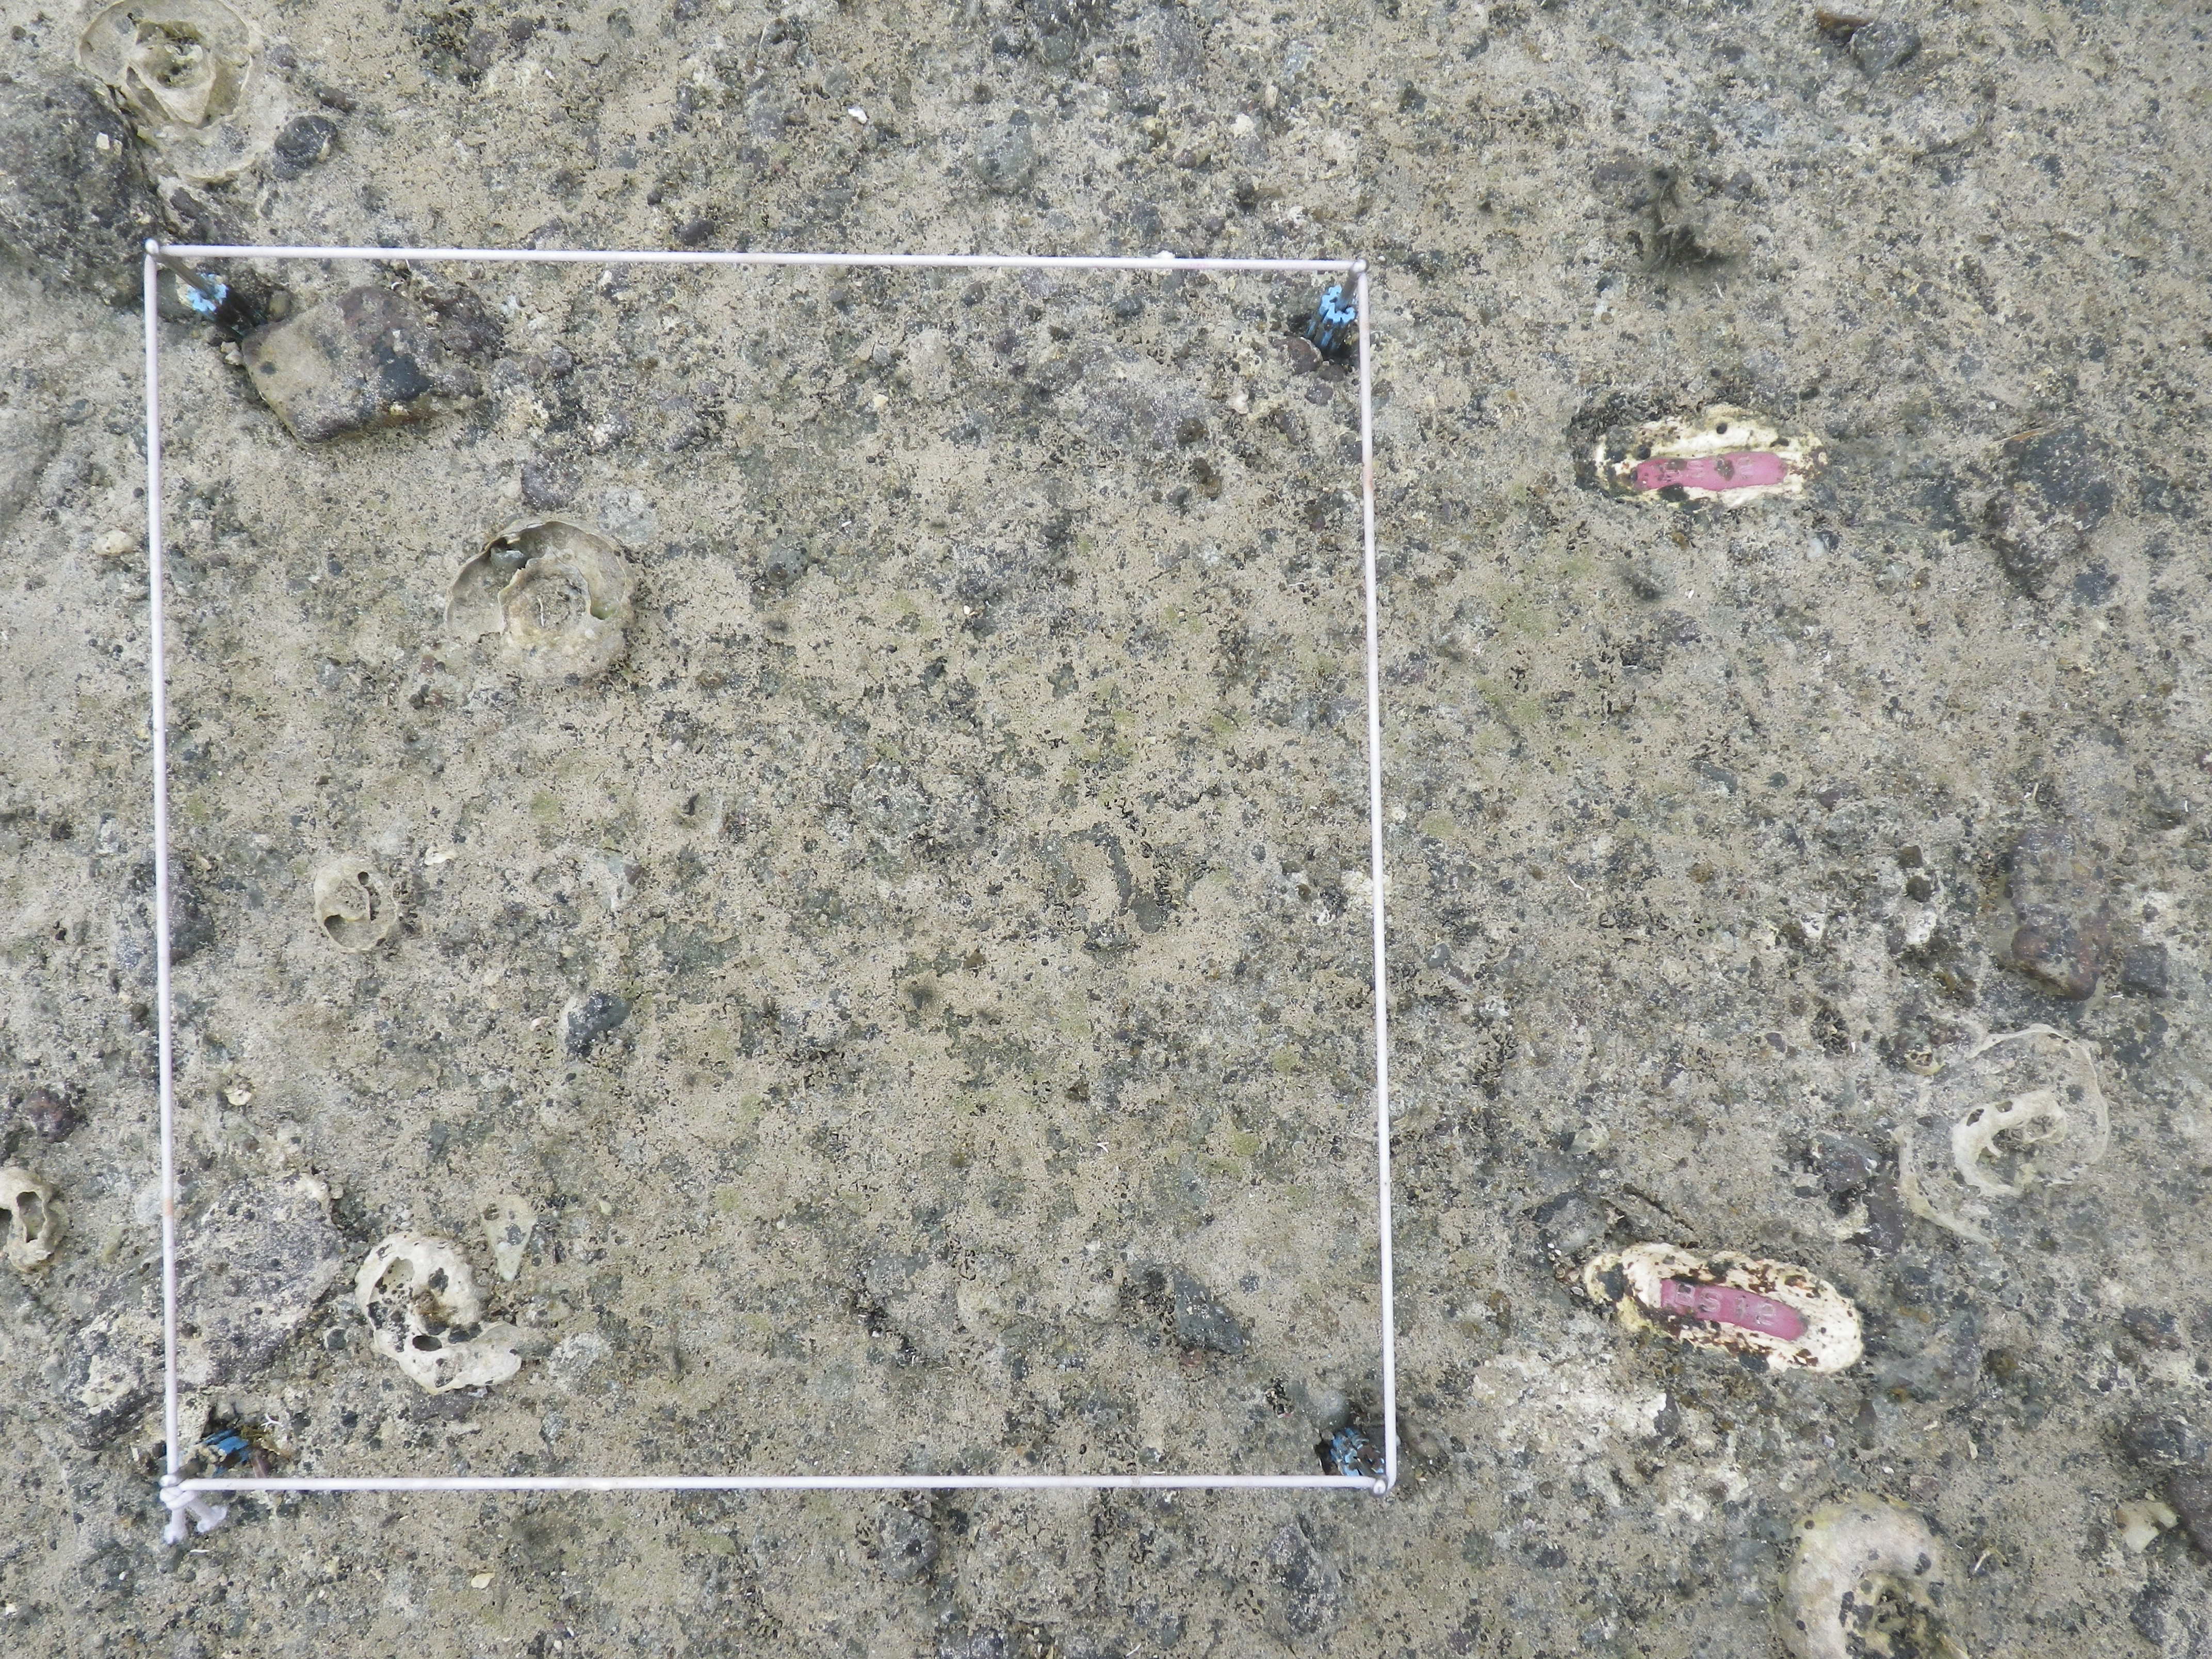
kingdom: Animalia
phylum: Mollusca
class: Bivalvia
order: Mytilida
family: Mytilidae
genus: Brachidontes
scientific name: Brachidontes mutabilis
